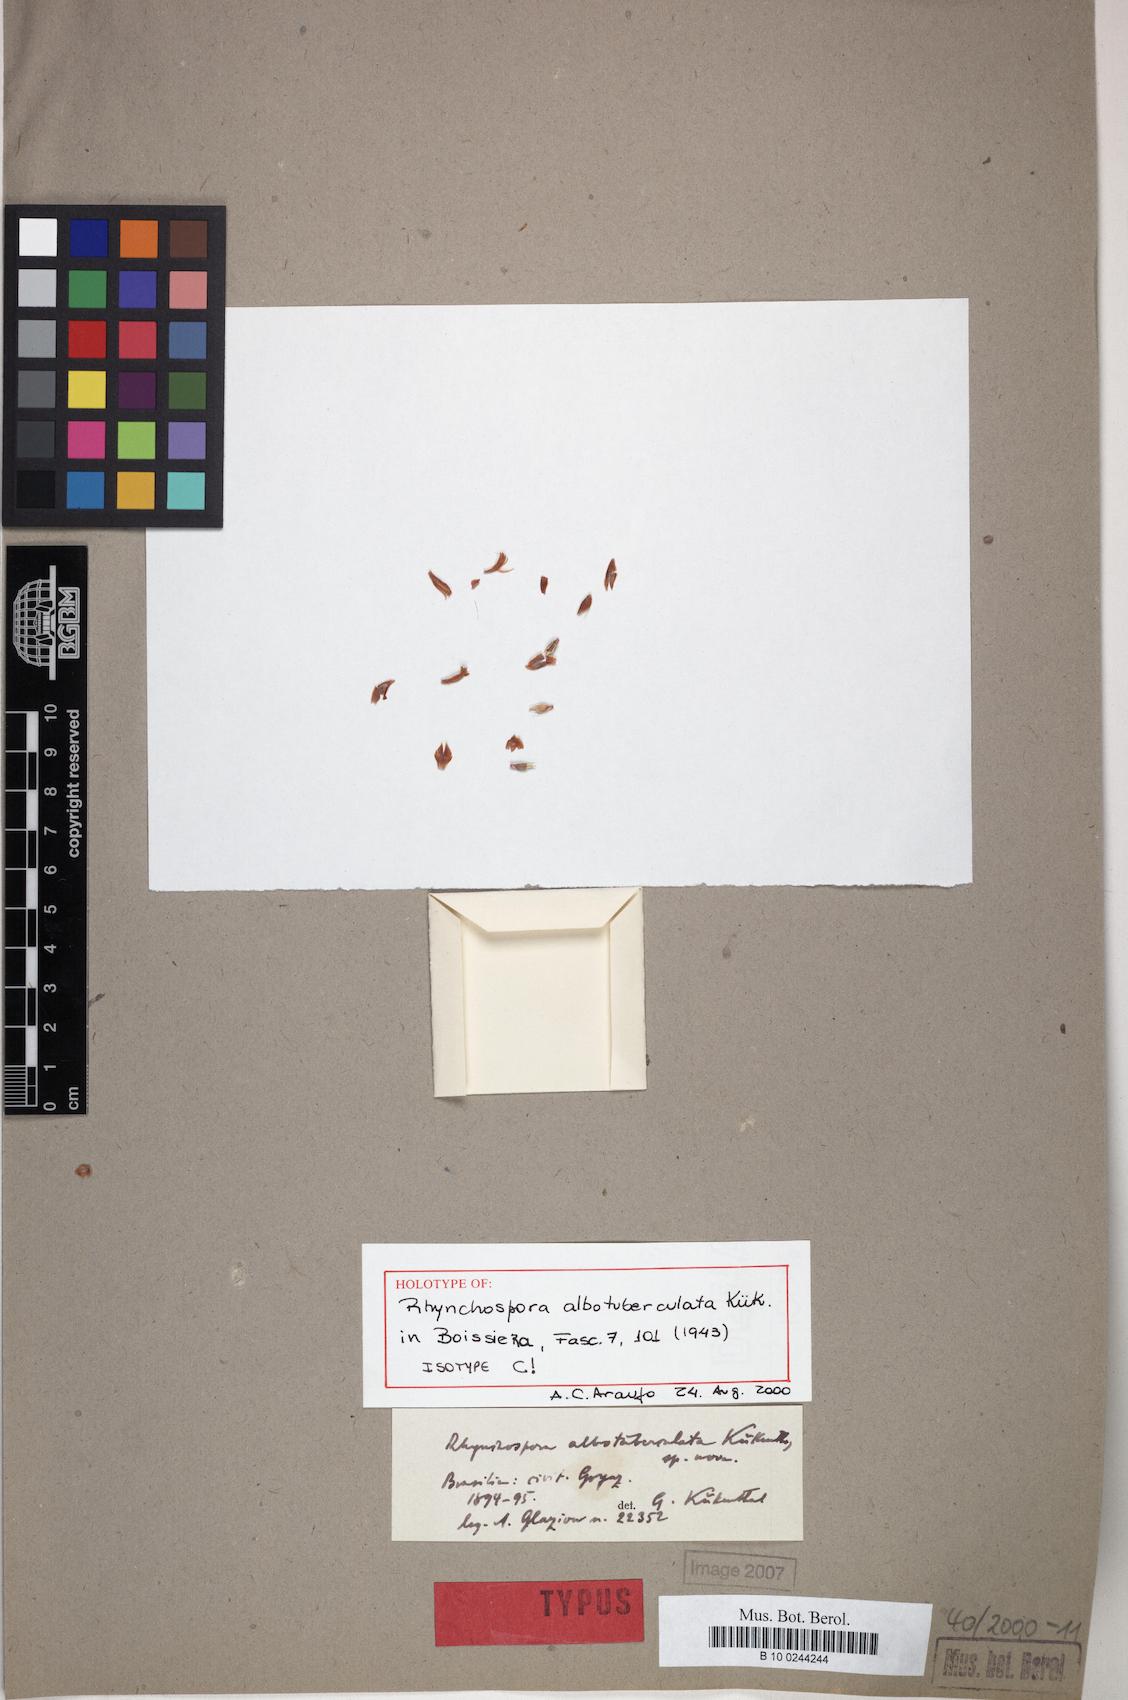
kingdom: Plantae
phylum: Tracheophyta
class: Liliopsida
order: Poales
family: Cyperaceae
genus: Rhynchospora
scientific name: Rhynchospora albotuberculata
